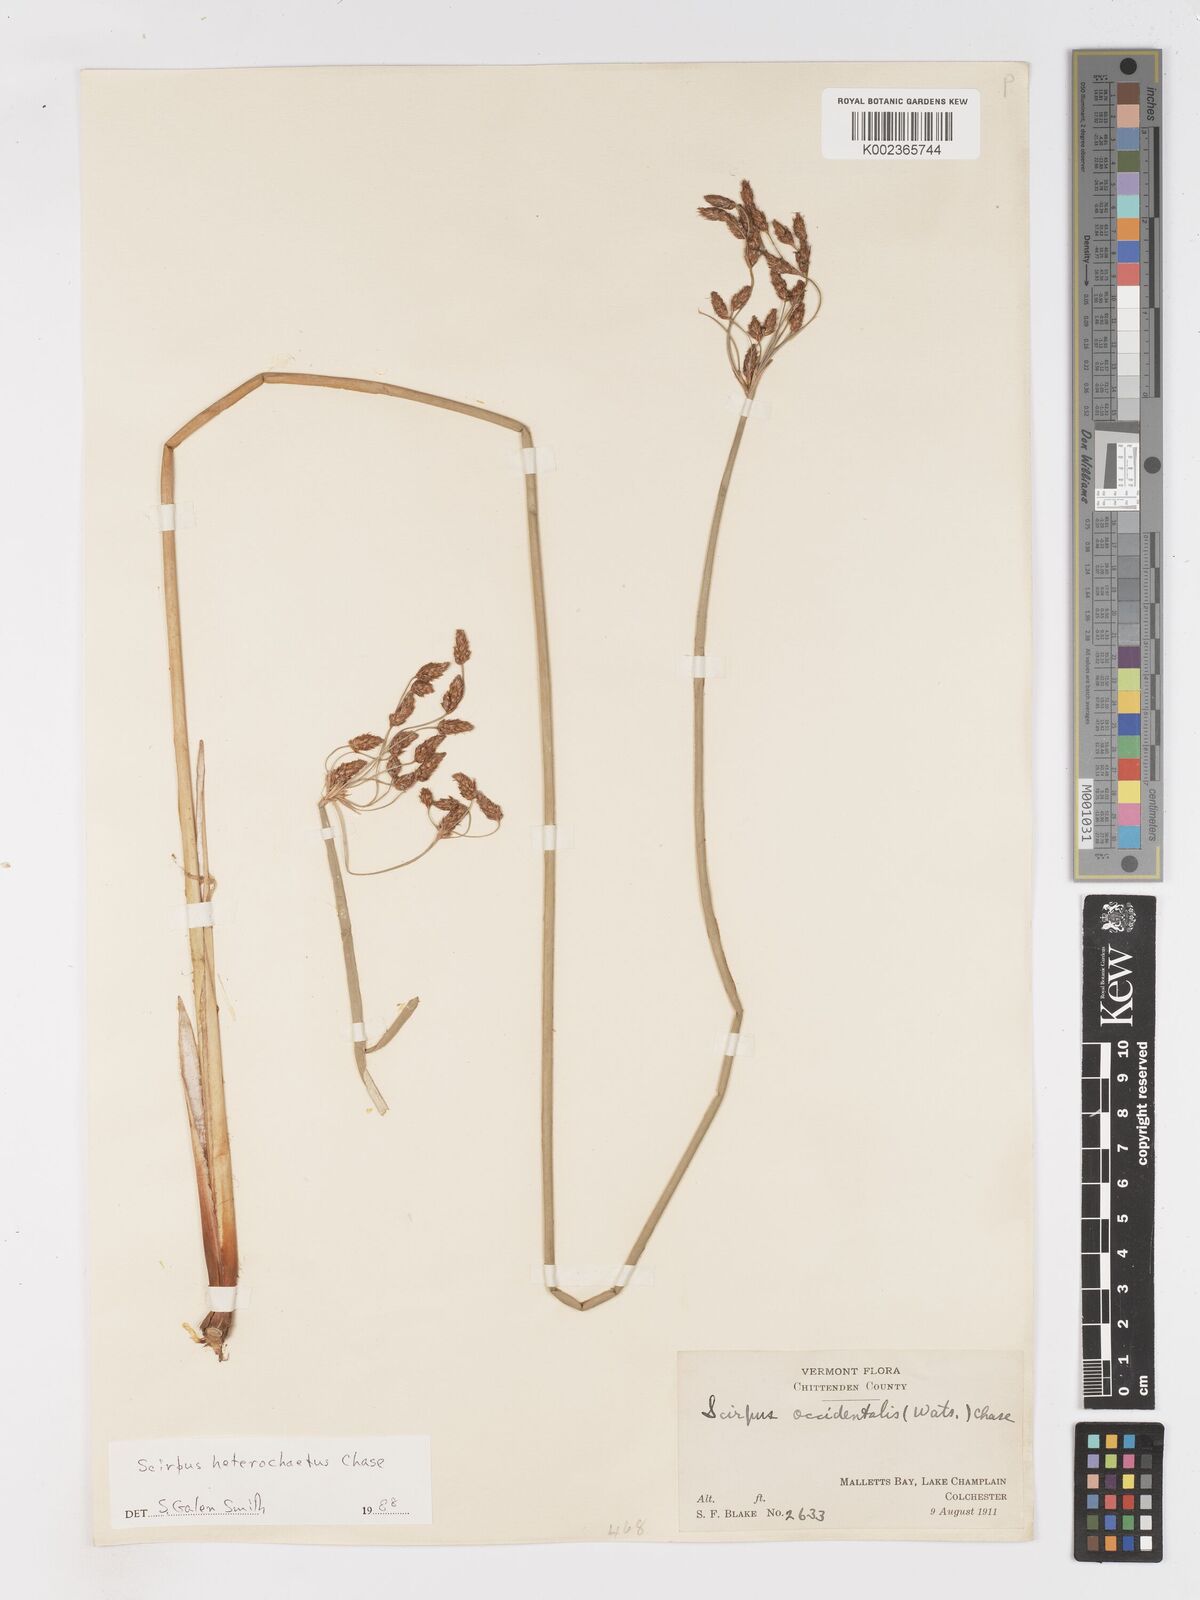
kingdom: Plantae
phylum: Tracheophyta
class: Liliopsida
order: Poales
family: Cyperaceae
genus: Schoenoplectus
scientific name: Schoenoplectus
